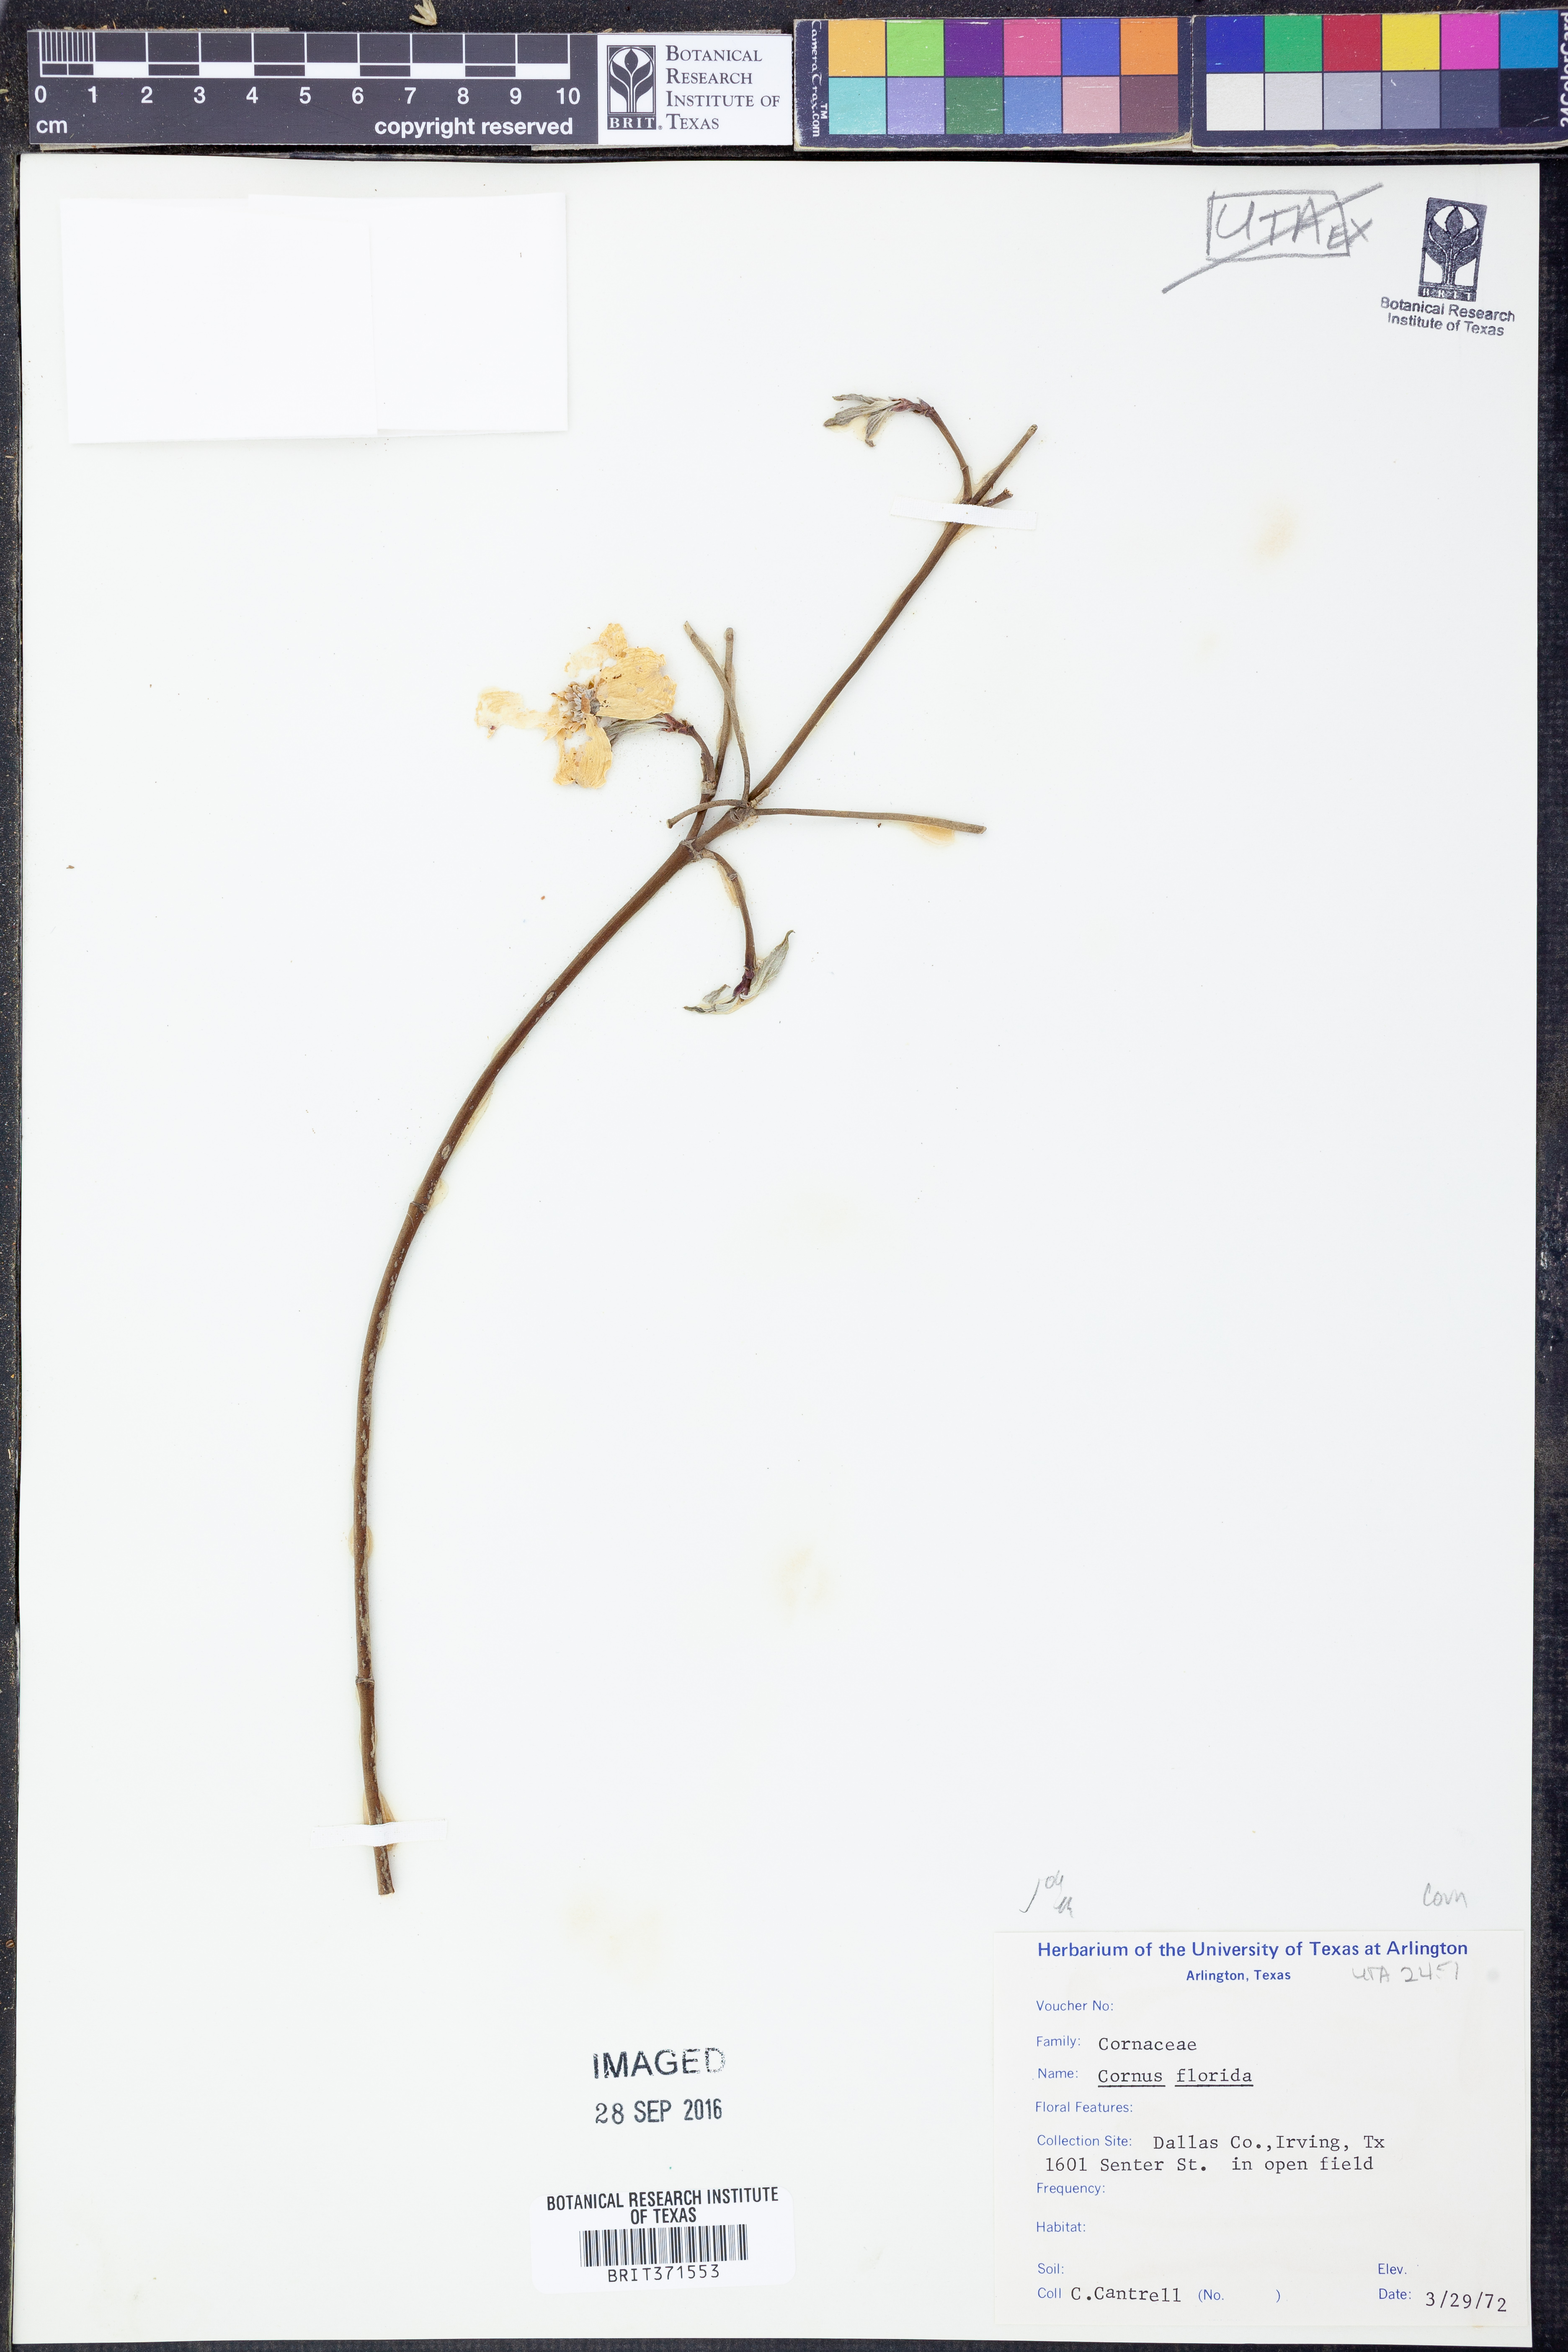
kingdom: Plantae
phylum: Tracheophyta
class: Magnoliopsida
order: Cornales
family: Cornaceae
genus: Cornus
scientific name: Cornus florida
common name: Flowering dogwood
